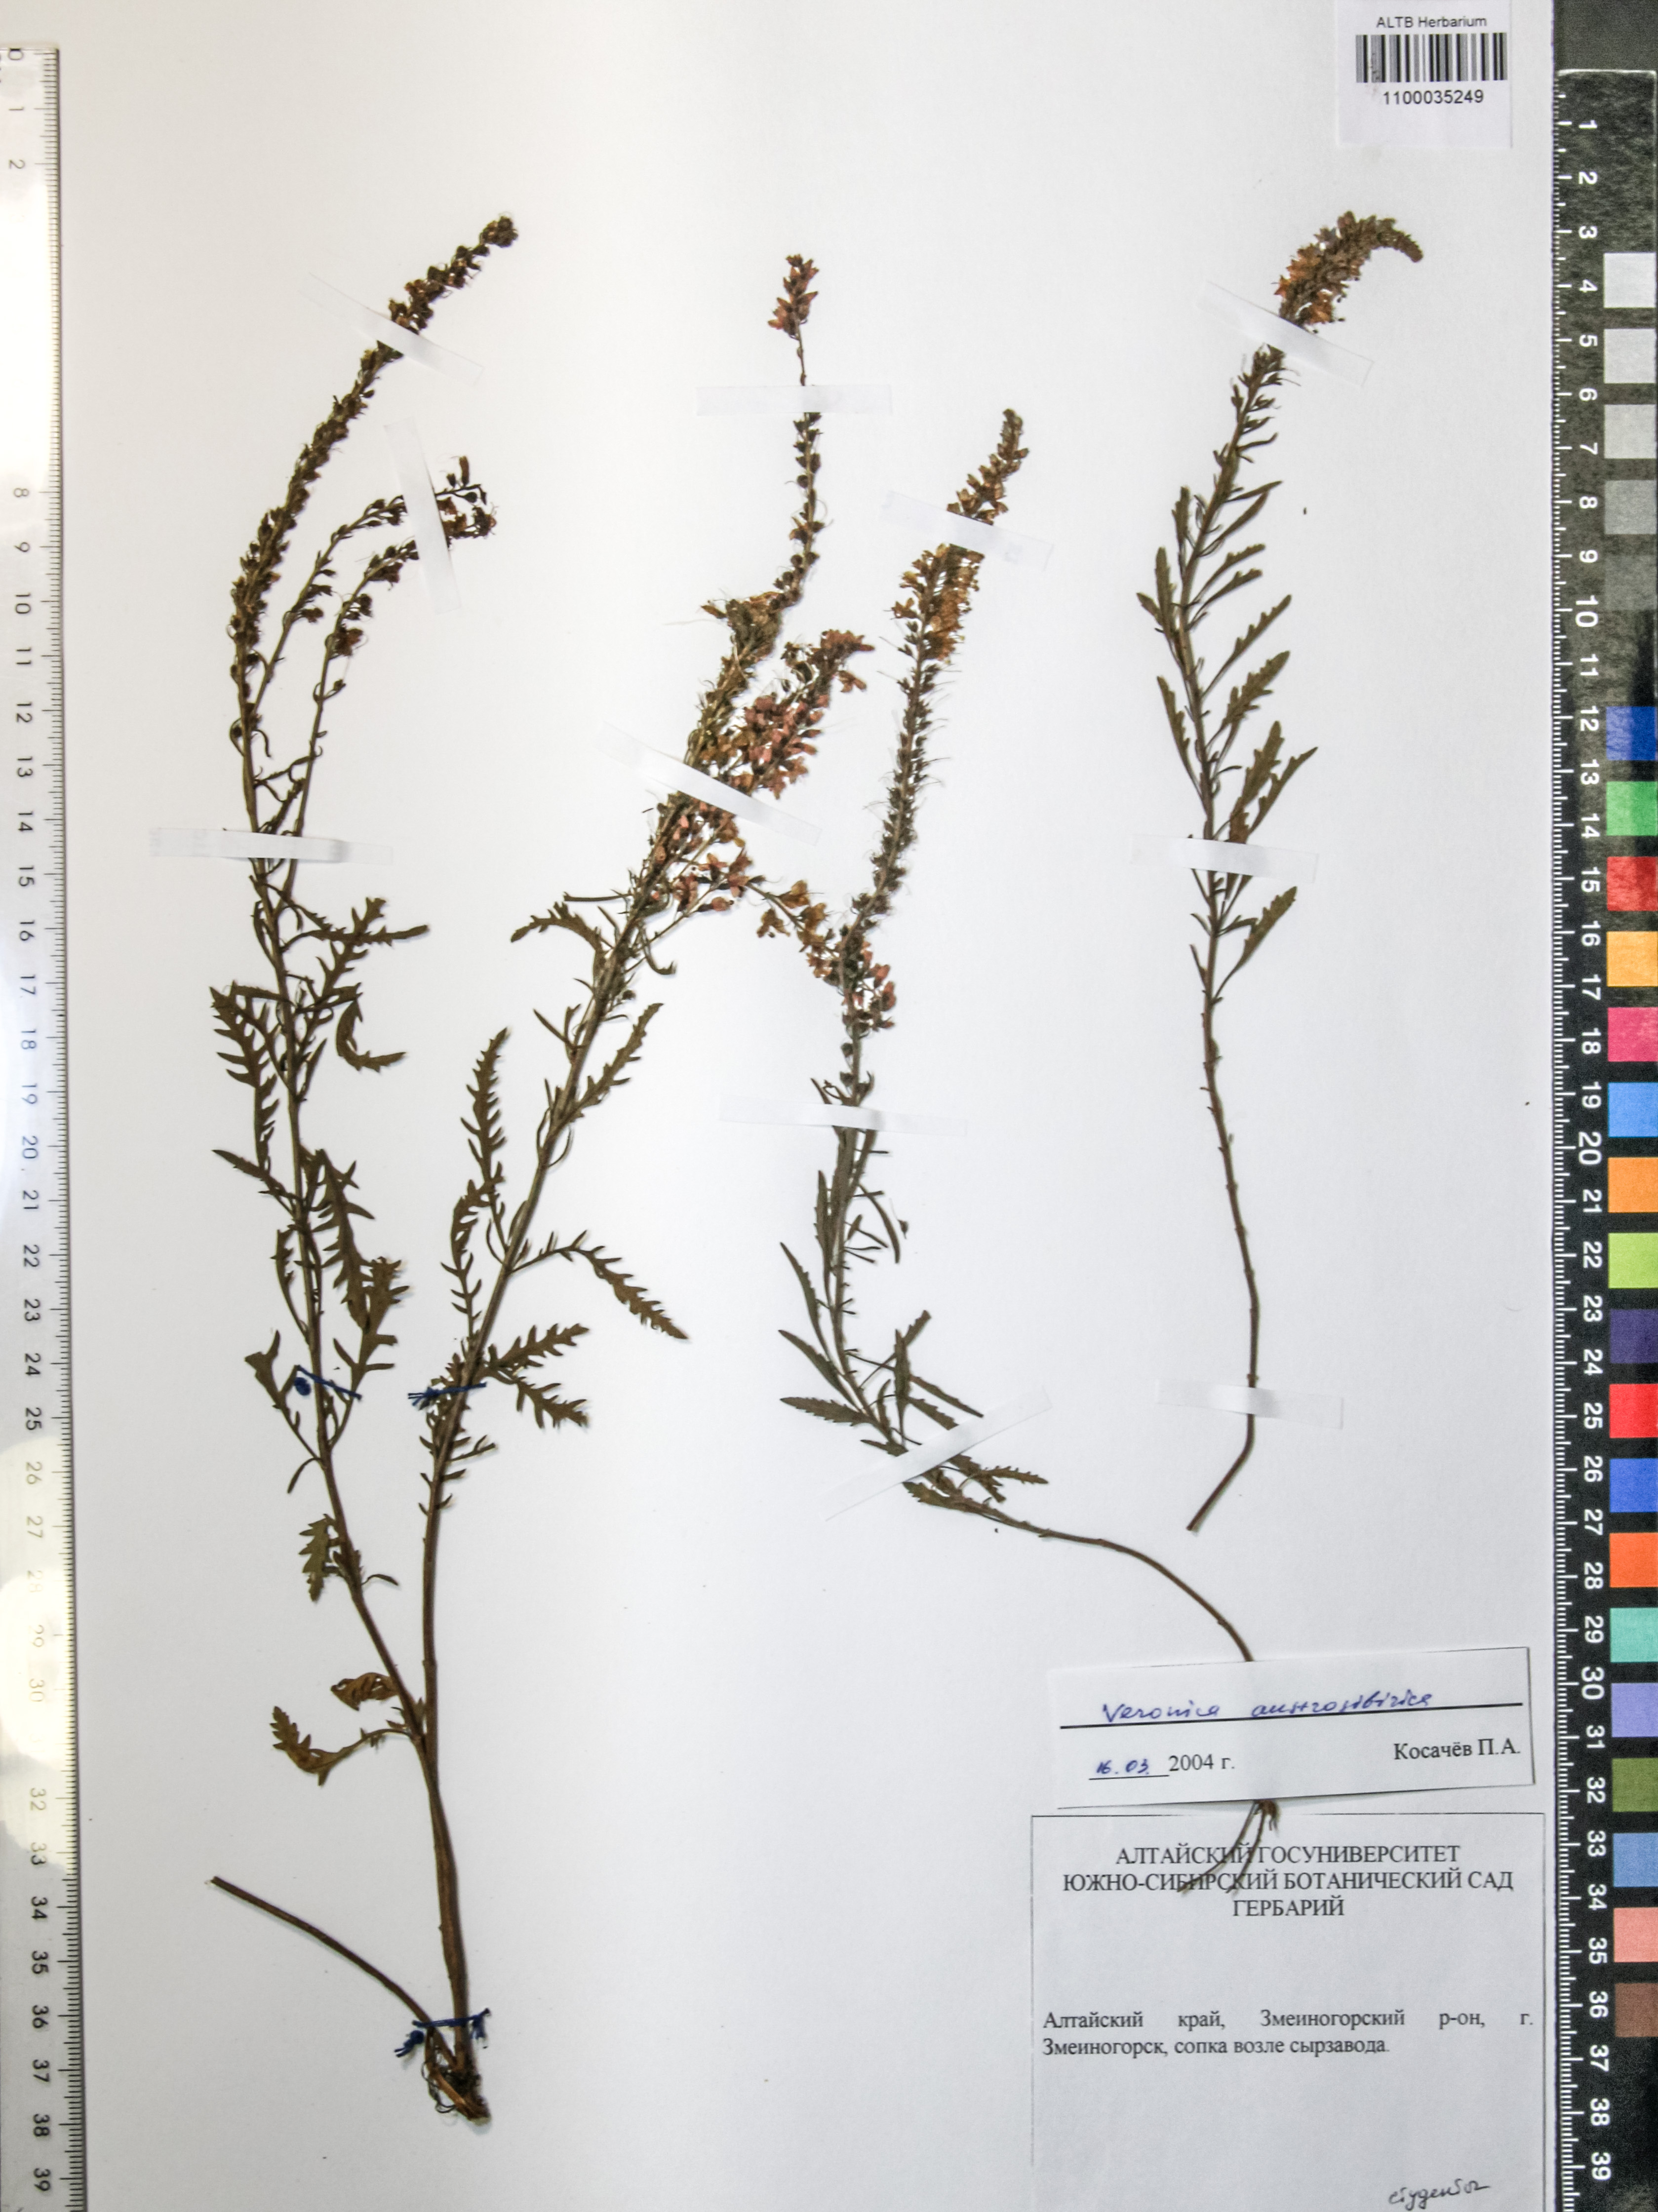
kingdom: Plantae
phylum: Tracheophyta
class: Magnoliopsida
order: Lamiales
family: Plantaginaceae
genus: Veronica
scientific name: Veronica altaica
